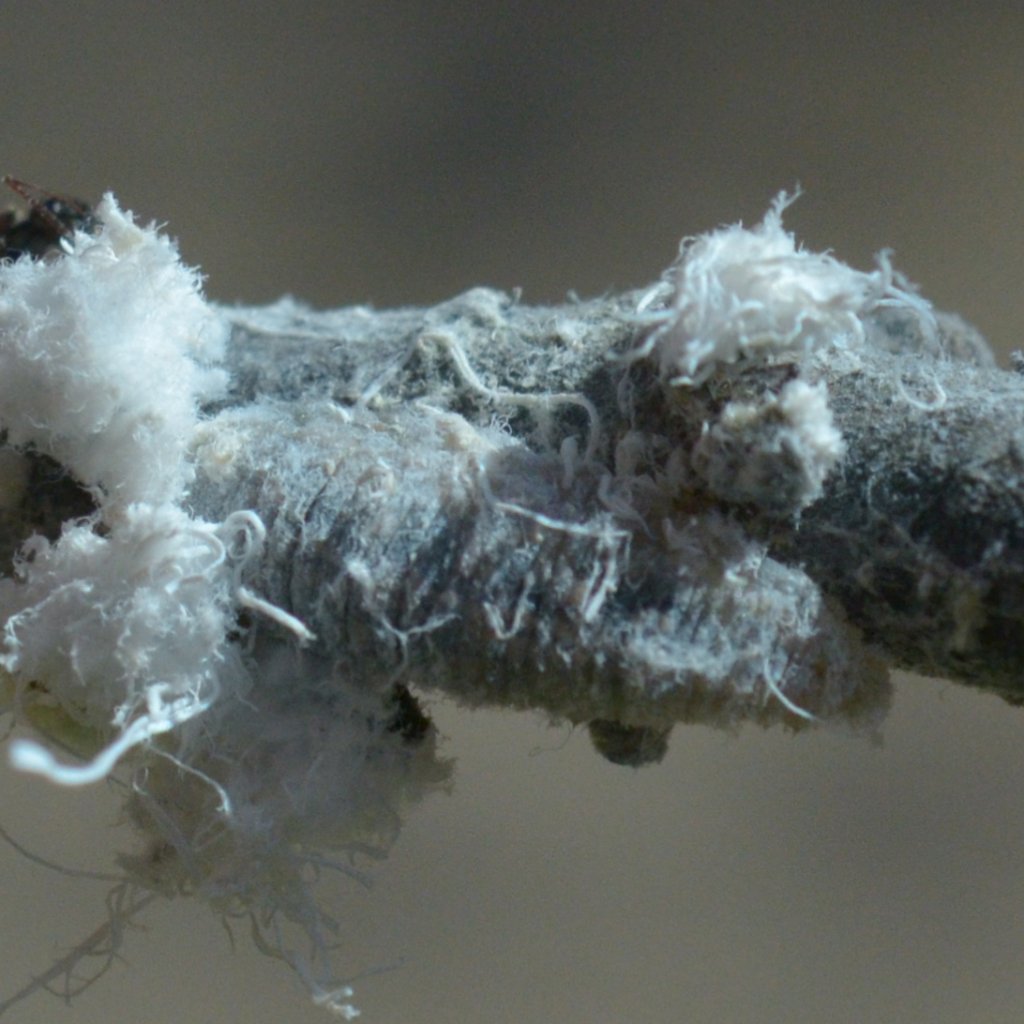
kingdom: Animalia
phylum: Arthropoda
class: Insecta
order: Lepidoptera
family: Lycaenidae
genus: Feniseca
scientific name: Feniseca tarquinius
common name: Harvester
